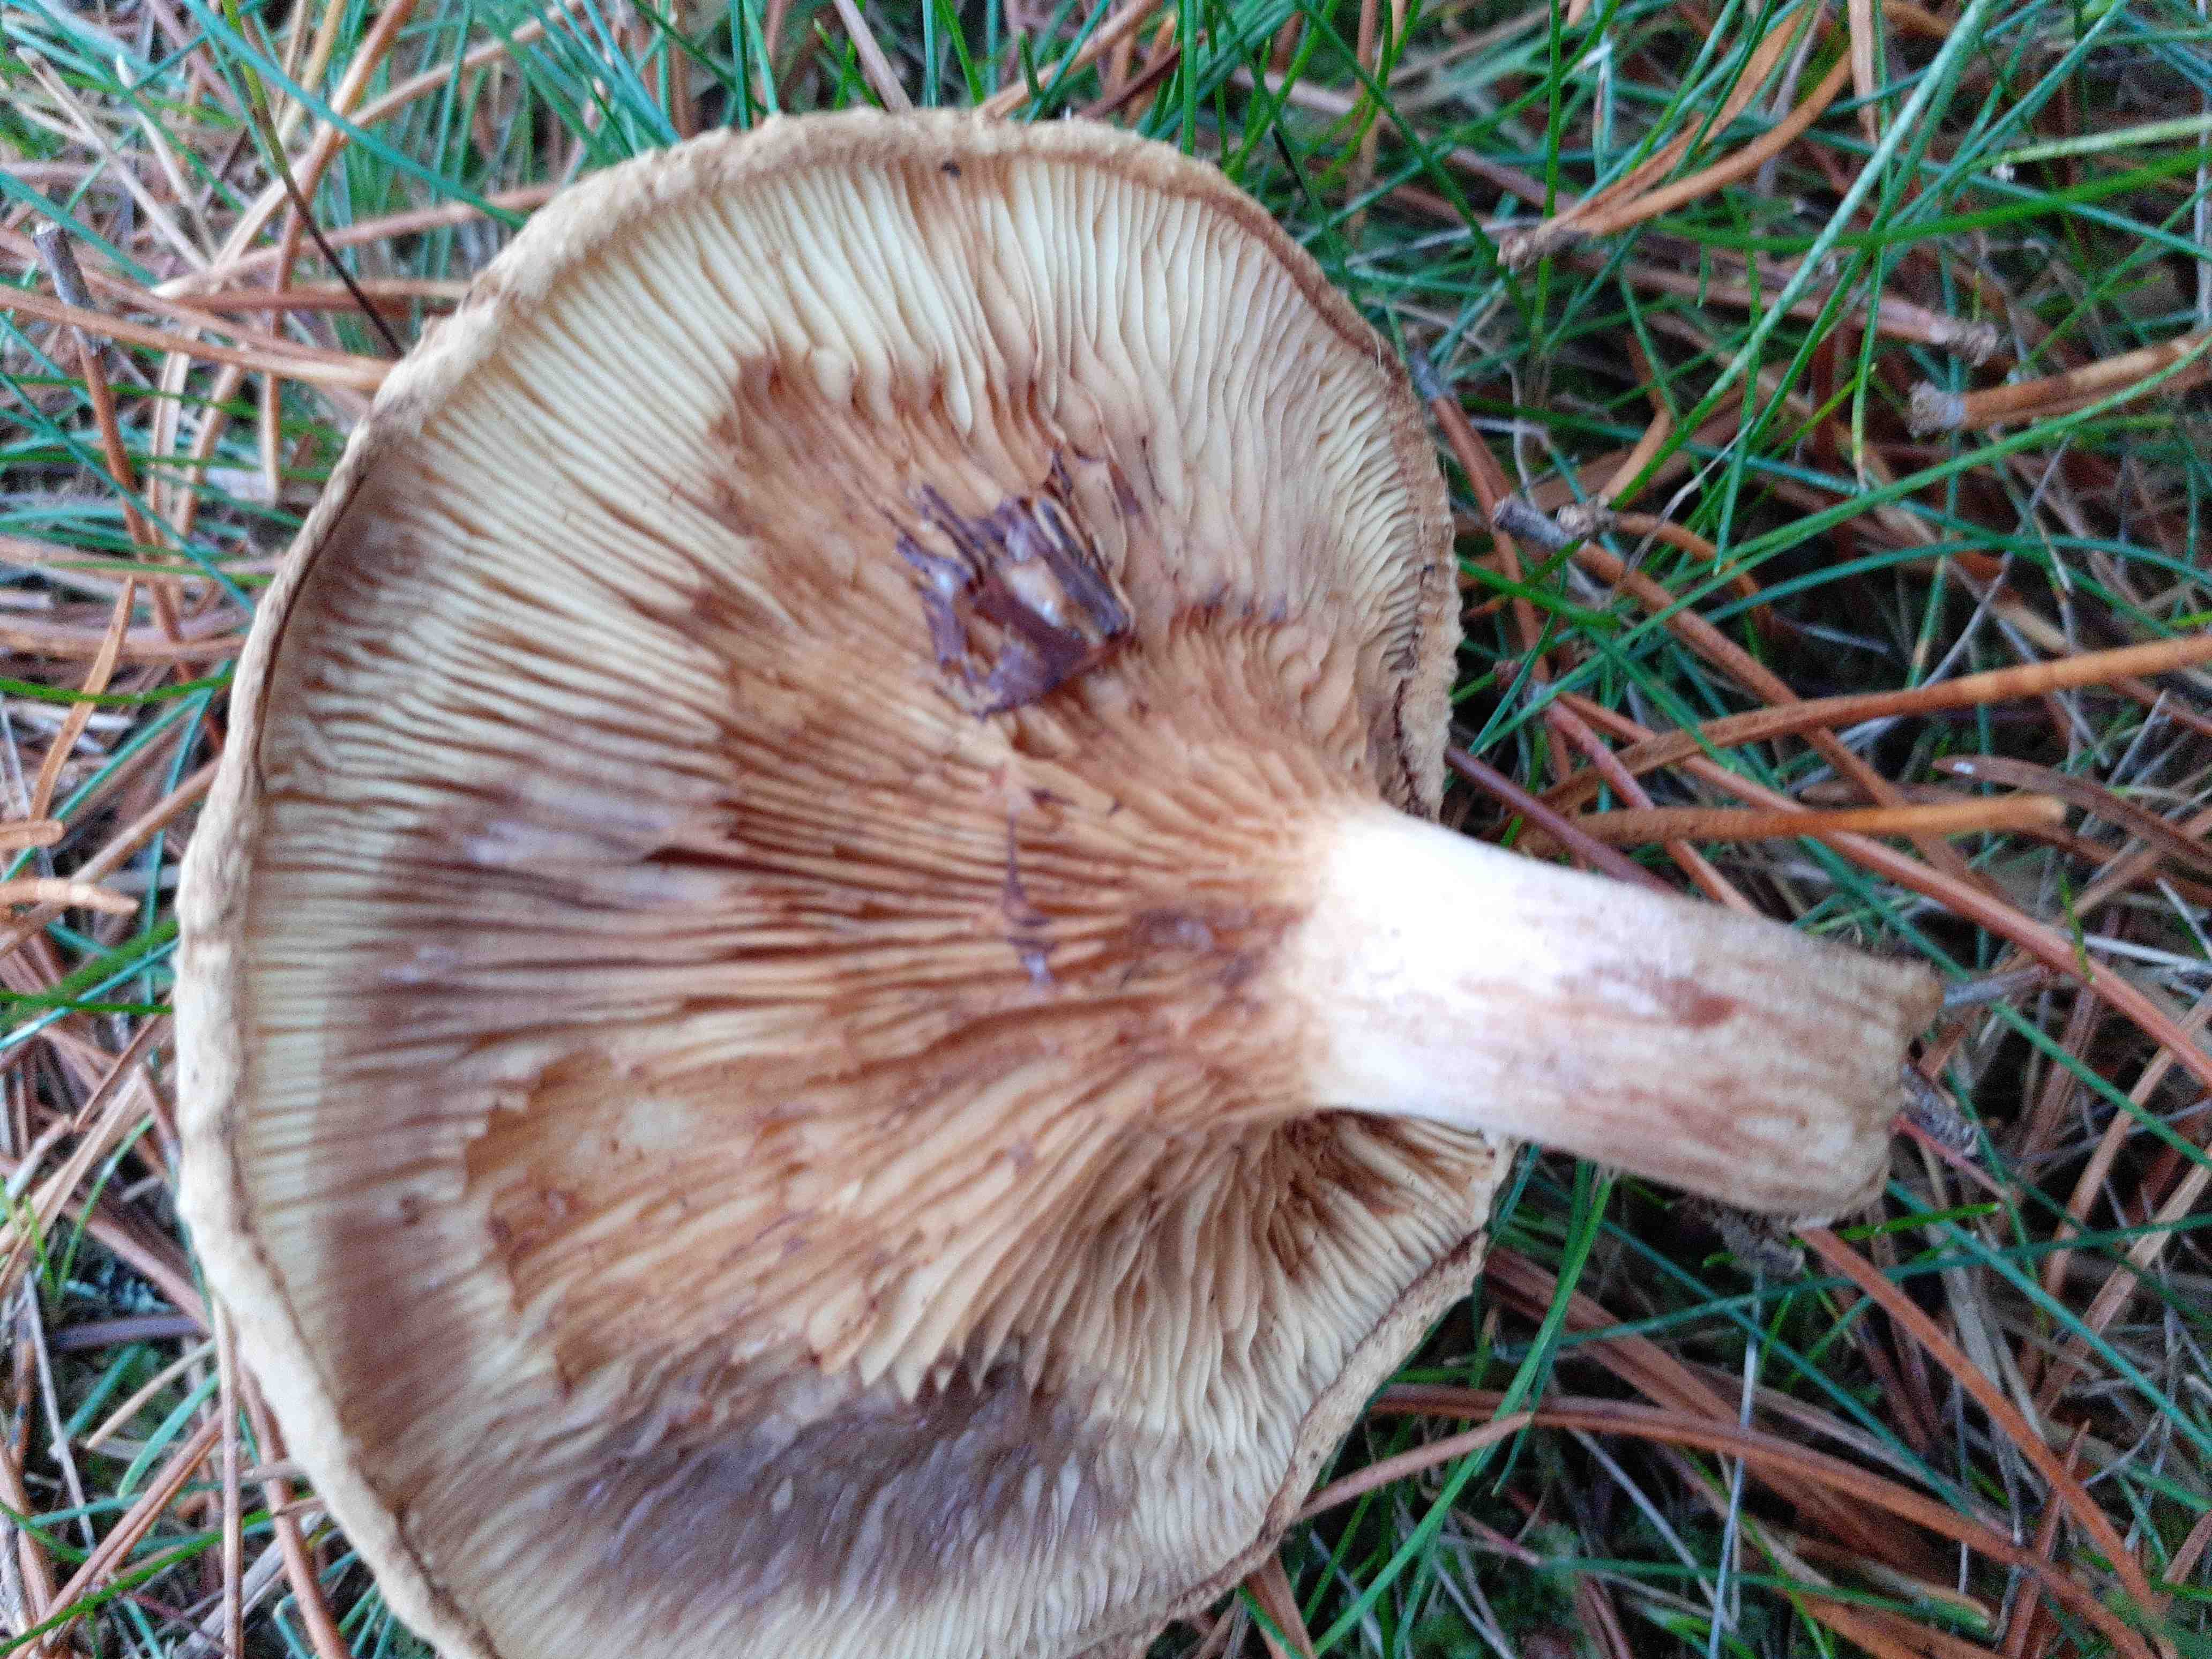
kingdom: Fungi
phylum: Basidiomycota
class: Agaricomycetes
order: Boletales
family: Paxillaceae
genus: Paxillus
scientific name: Paxillus involutus
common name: almindelig netbladhat
